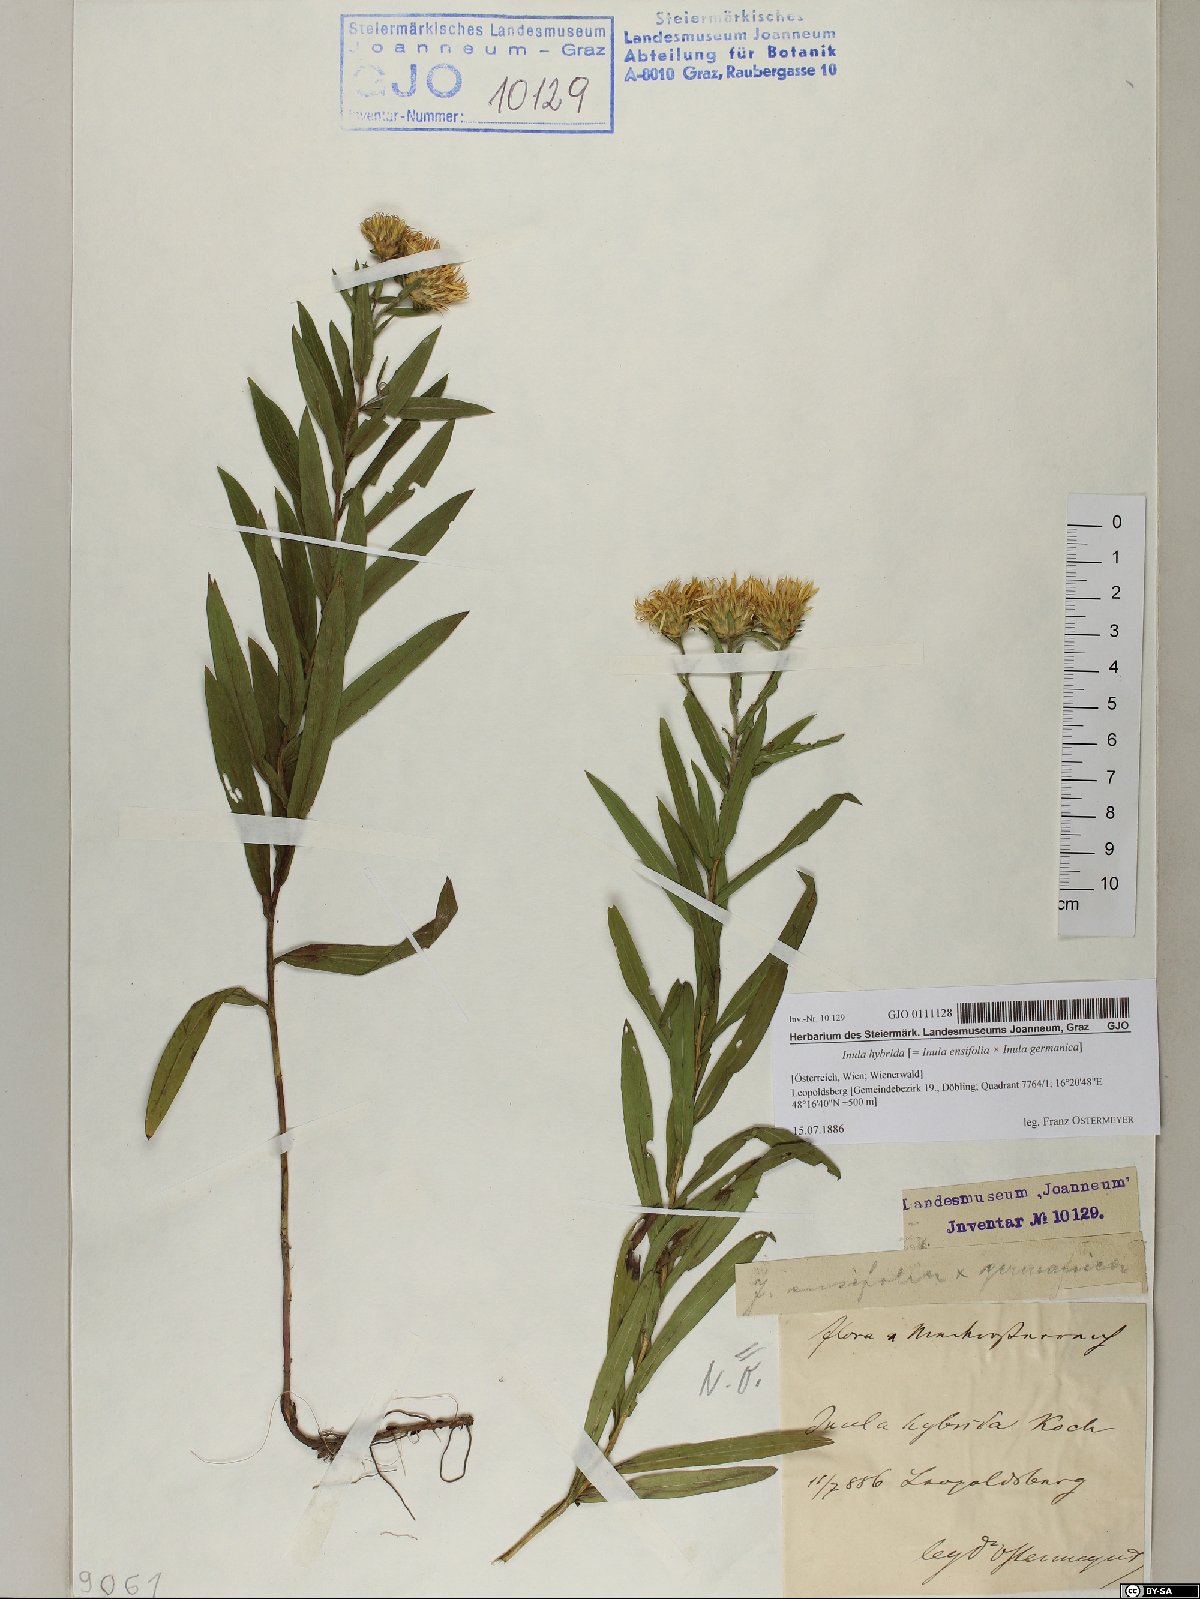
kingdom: Plantae
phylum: Tracheophyta
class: Magnoliopsida
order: Asterales
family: Asteraceae
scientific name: Asteraceae
